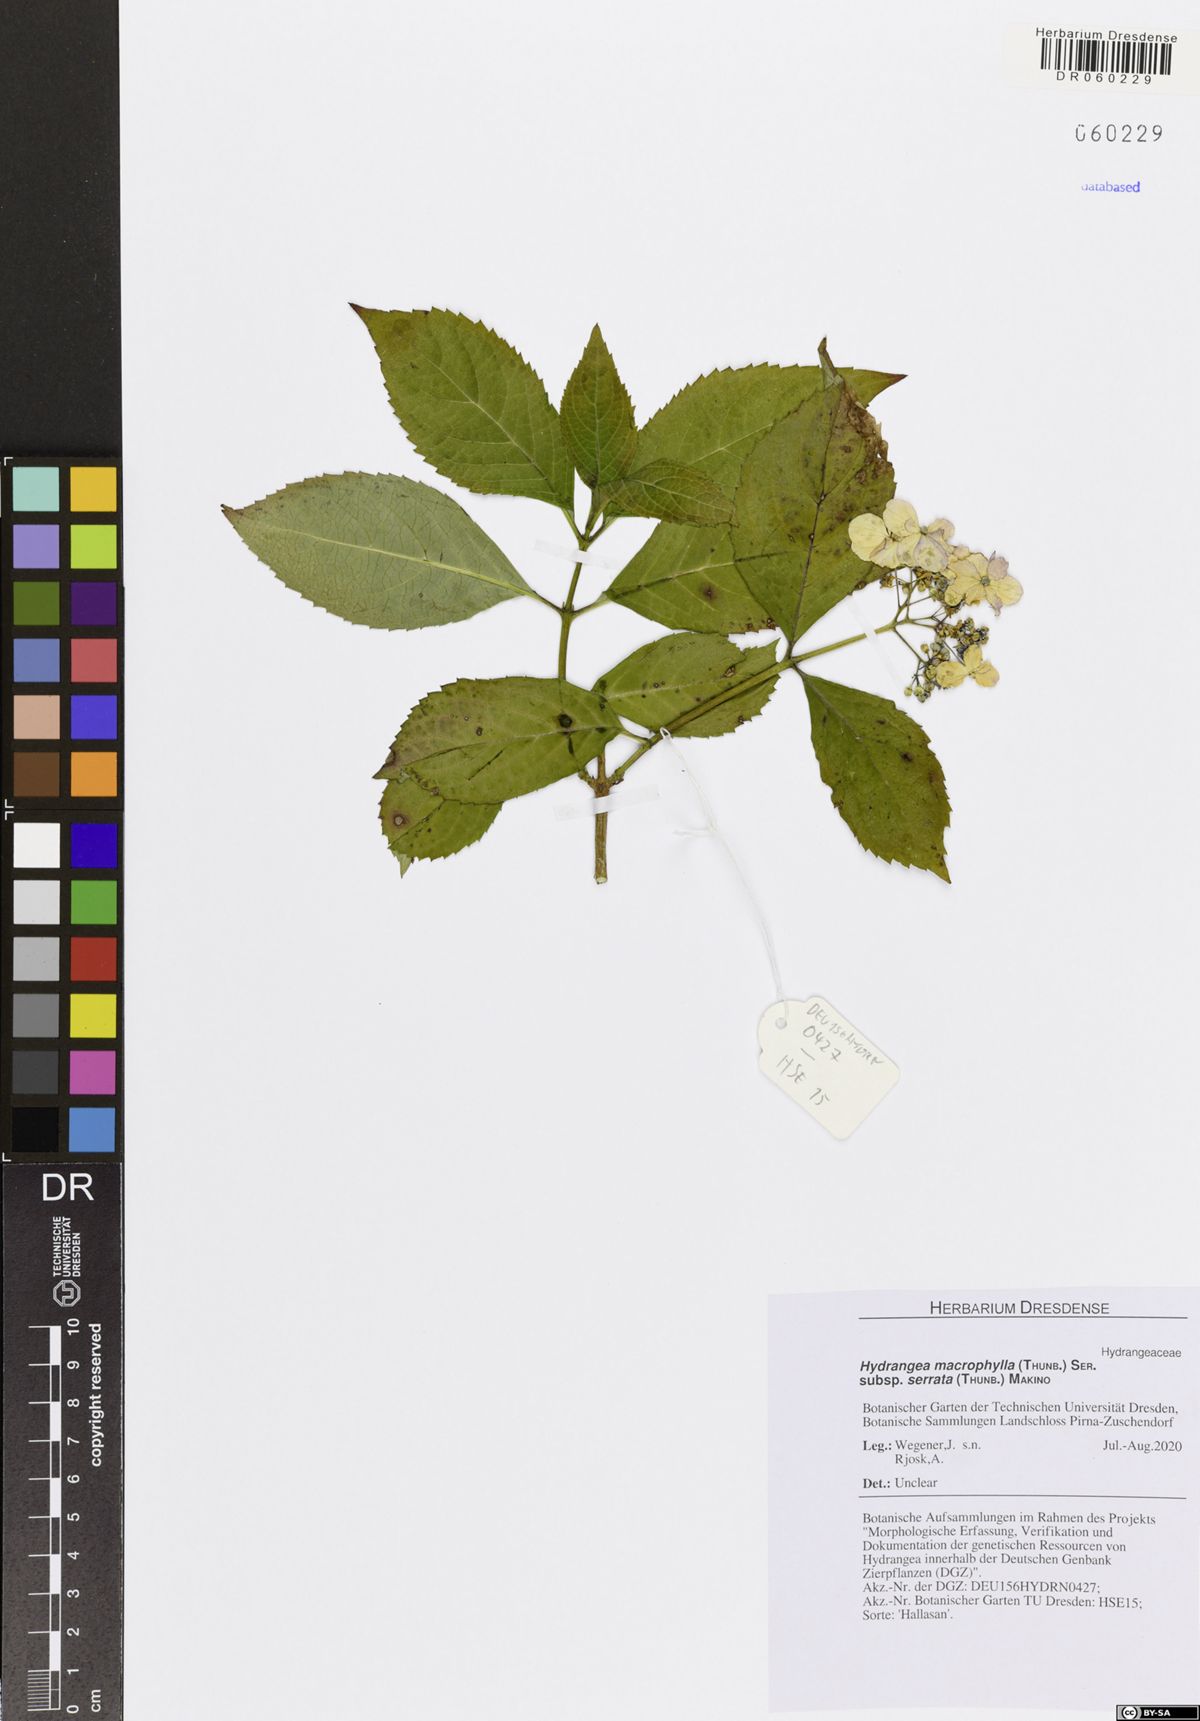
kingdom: Plantae
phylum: Tracheophyta
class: Magnoliopsida
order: Cornales
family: Hydrangeaceae
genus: Hydrangea
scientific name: Hydrangea serrata
